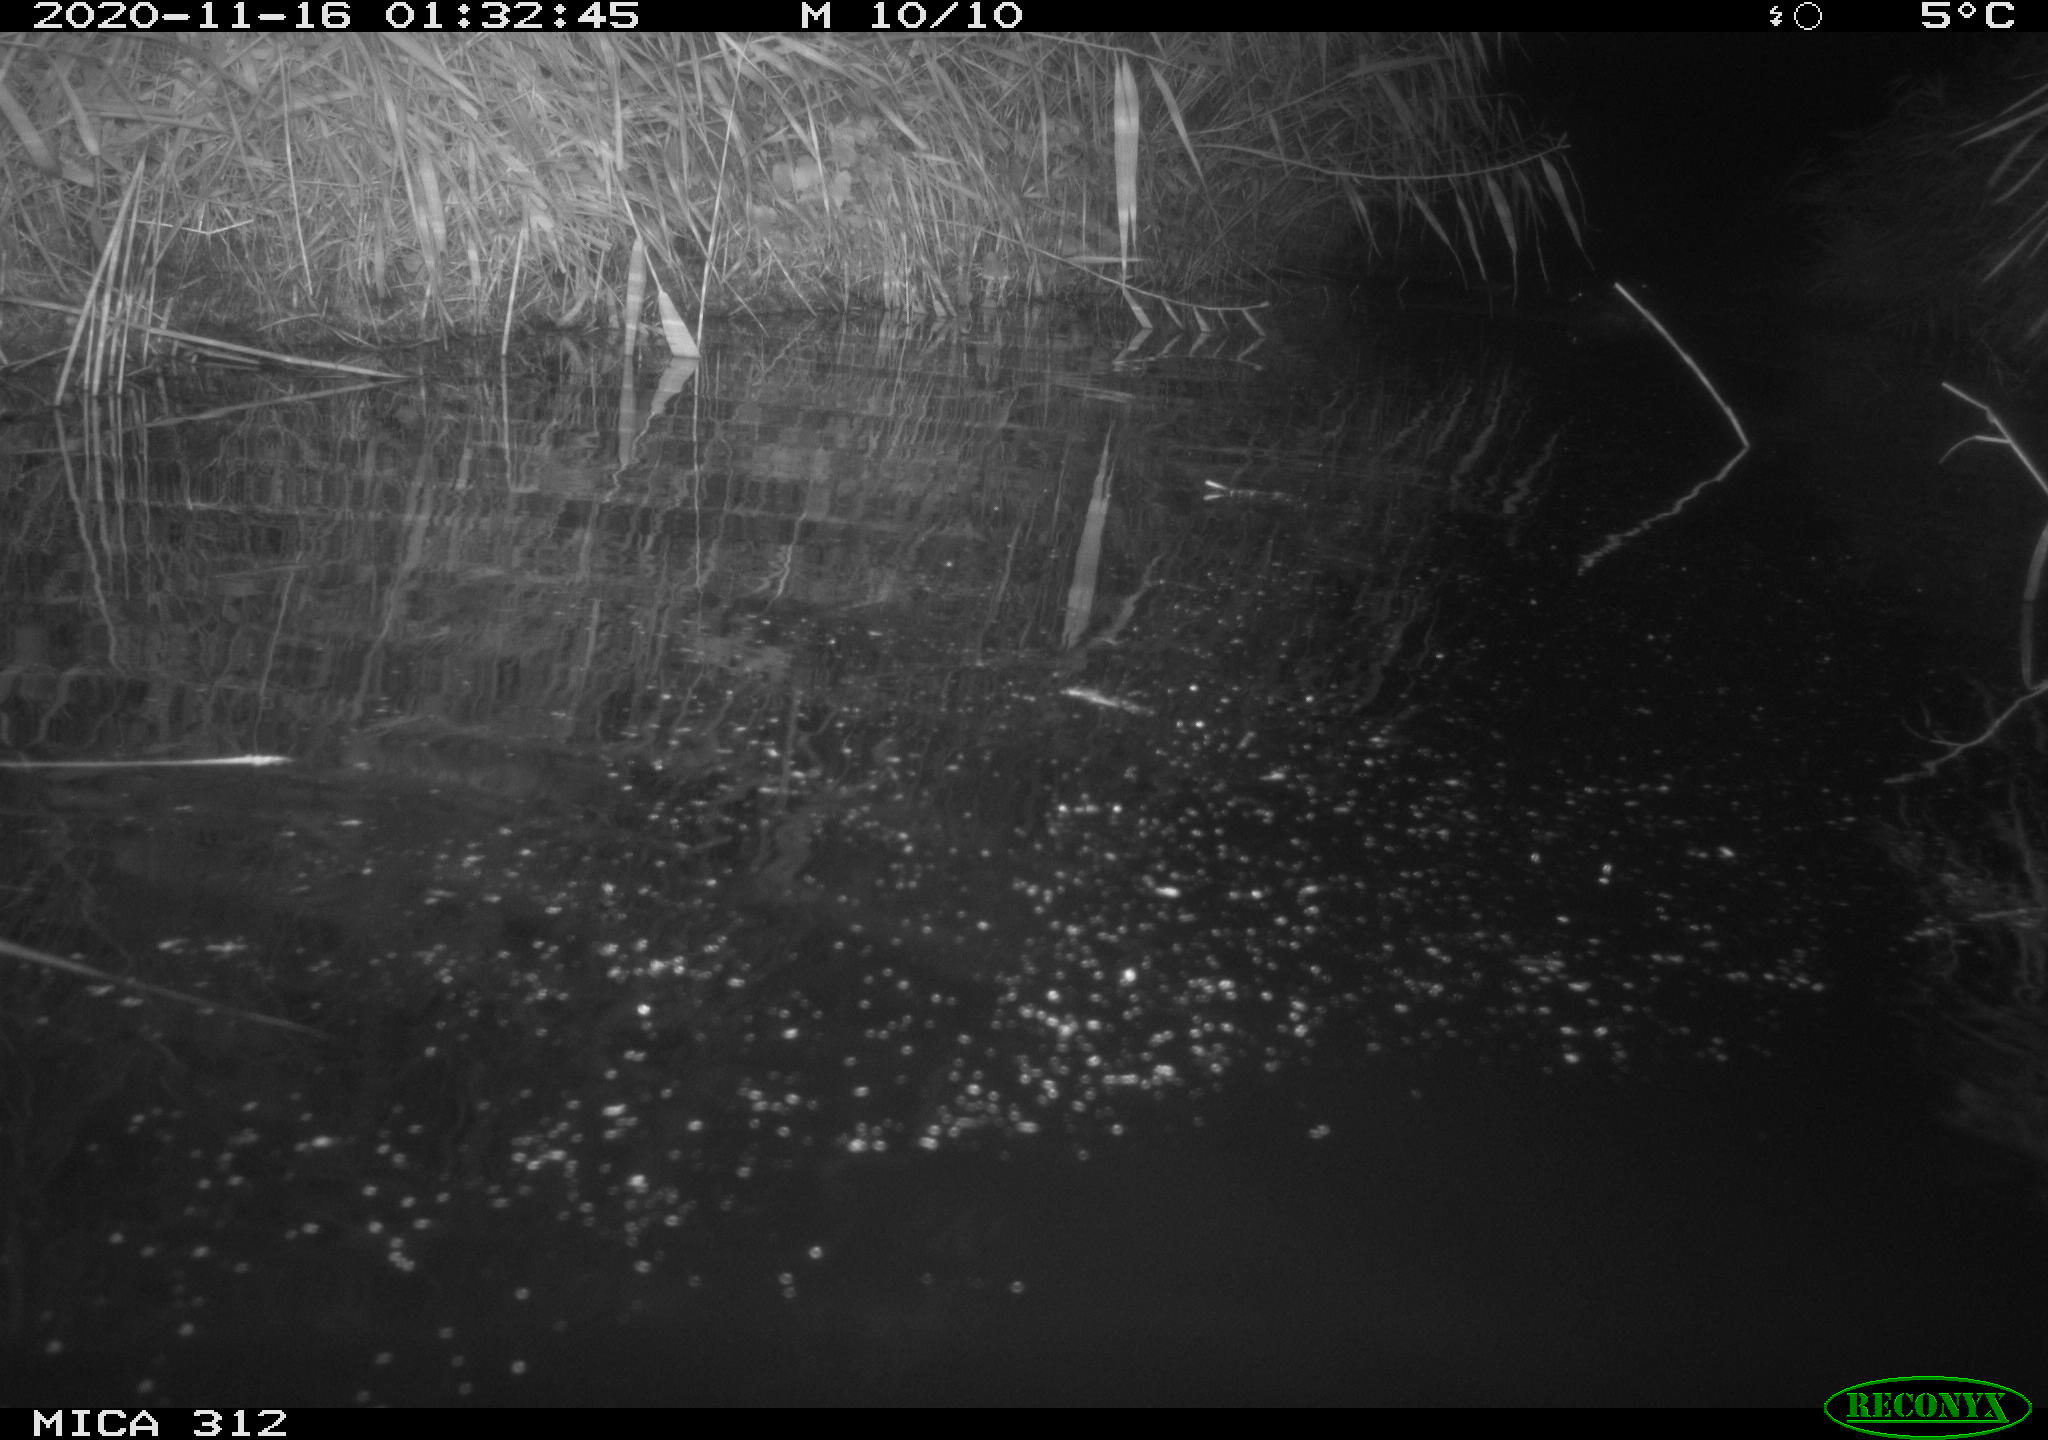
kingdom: Animalia
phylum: Chordata
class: Mammalia
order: Rodentia
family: Muridae
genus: Rattus
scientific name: Rattus norvegicus
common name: Brown rat
